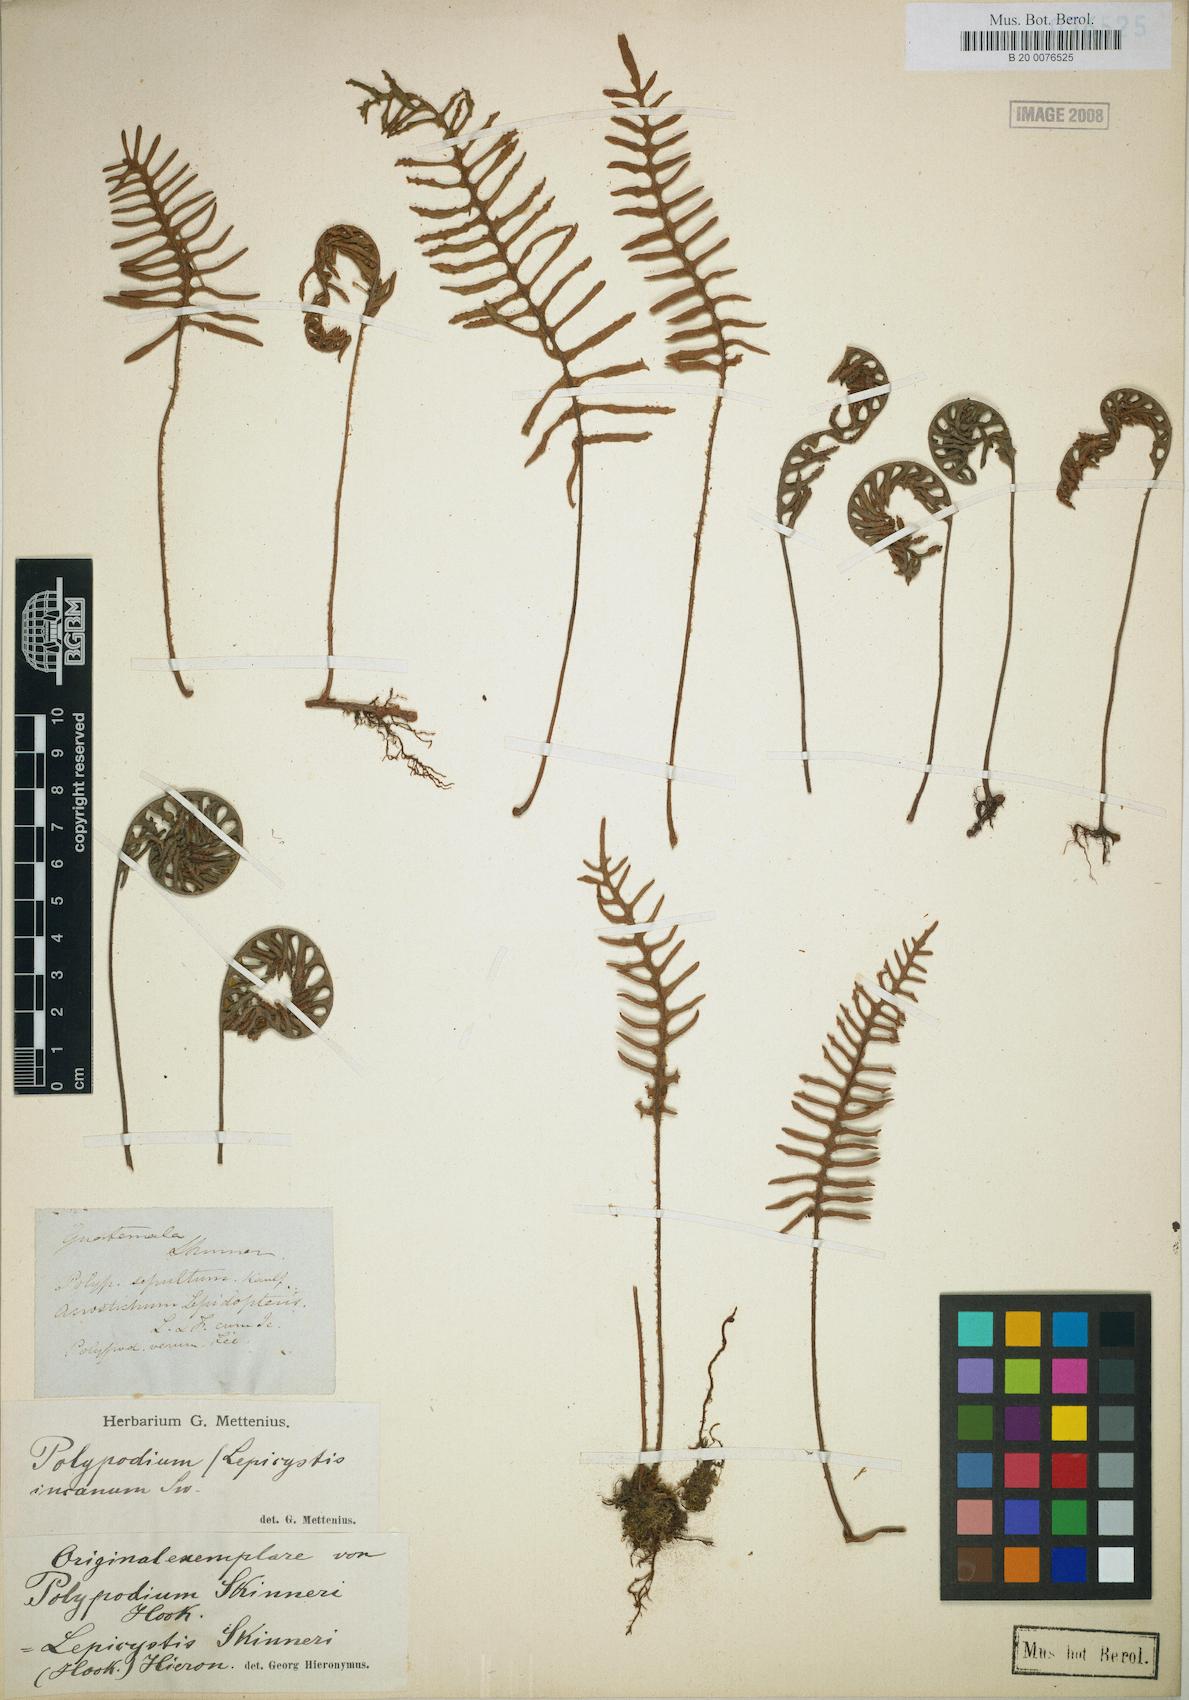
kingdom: Plantae
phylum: Tracheophyta
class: Polypodiopsida
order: Polypodiales
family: Polypodiaceae
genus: Pleopeltis
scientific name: Pleopeltis cryptocarpa
